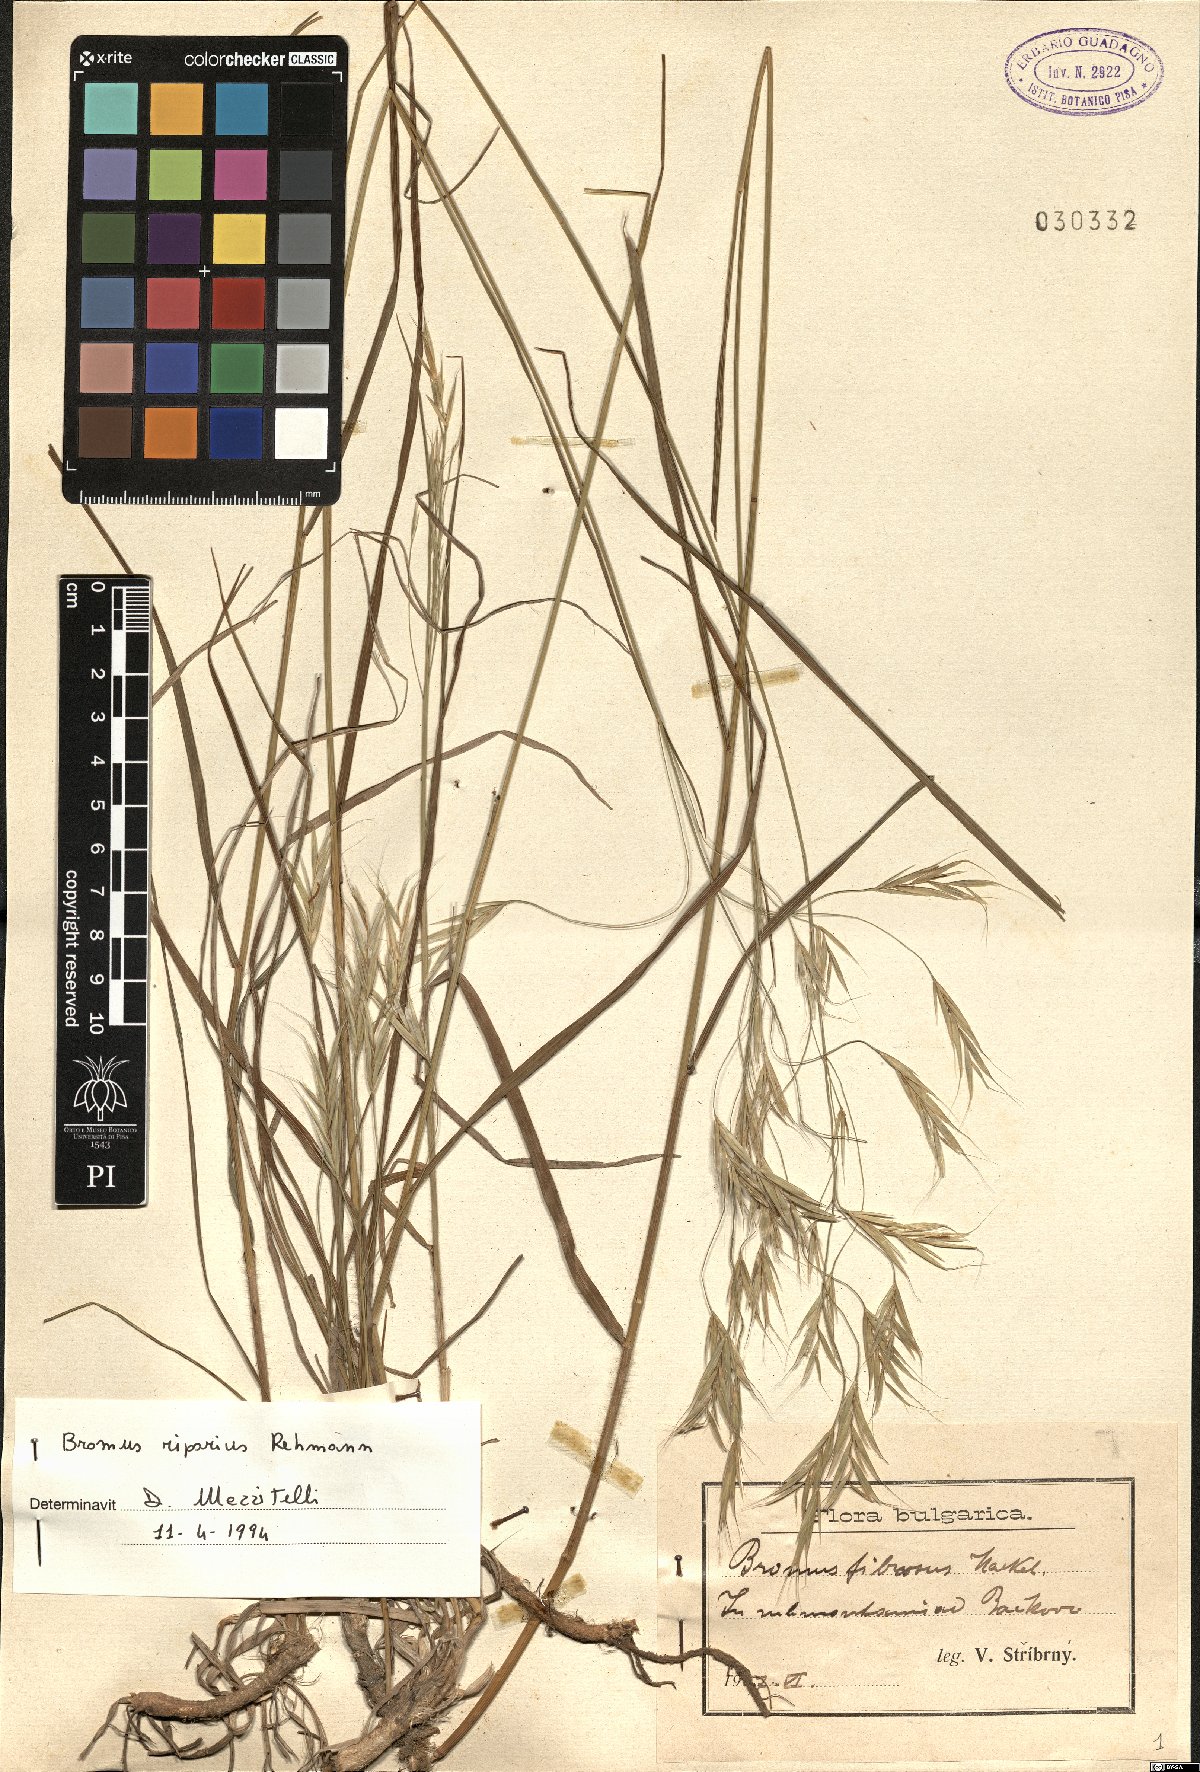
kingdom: Plantae
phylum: Tracheophyta
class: Liliopsida
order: Poales
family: Poaceae
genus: Bromus
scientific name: Bromus riparius
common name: Meadow brome
